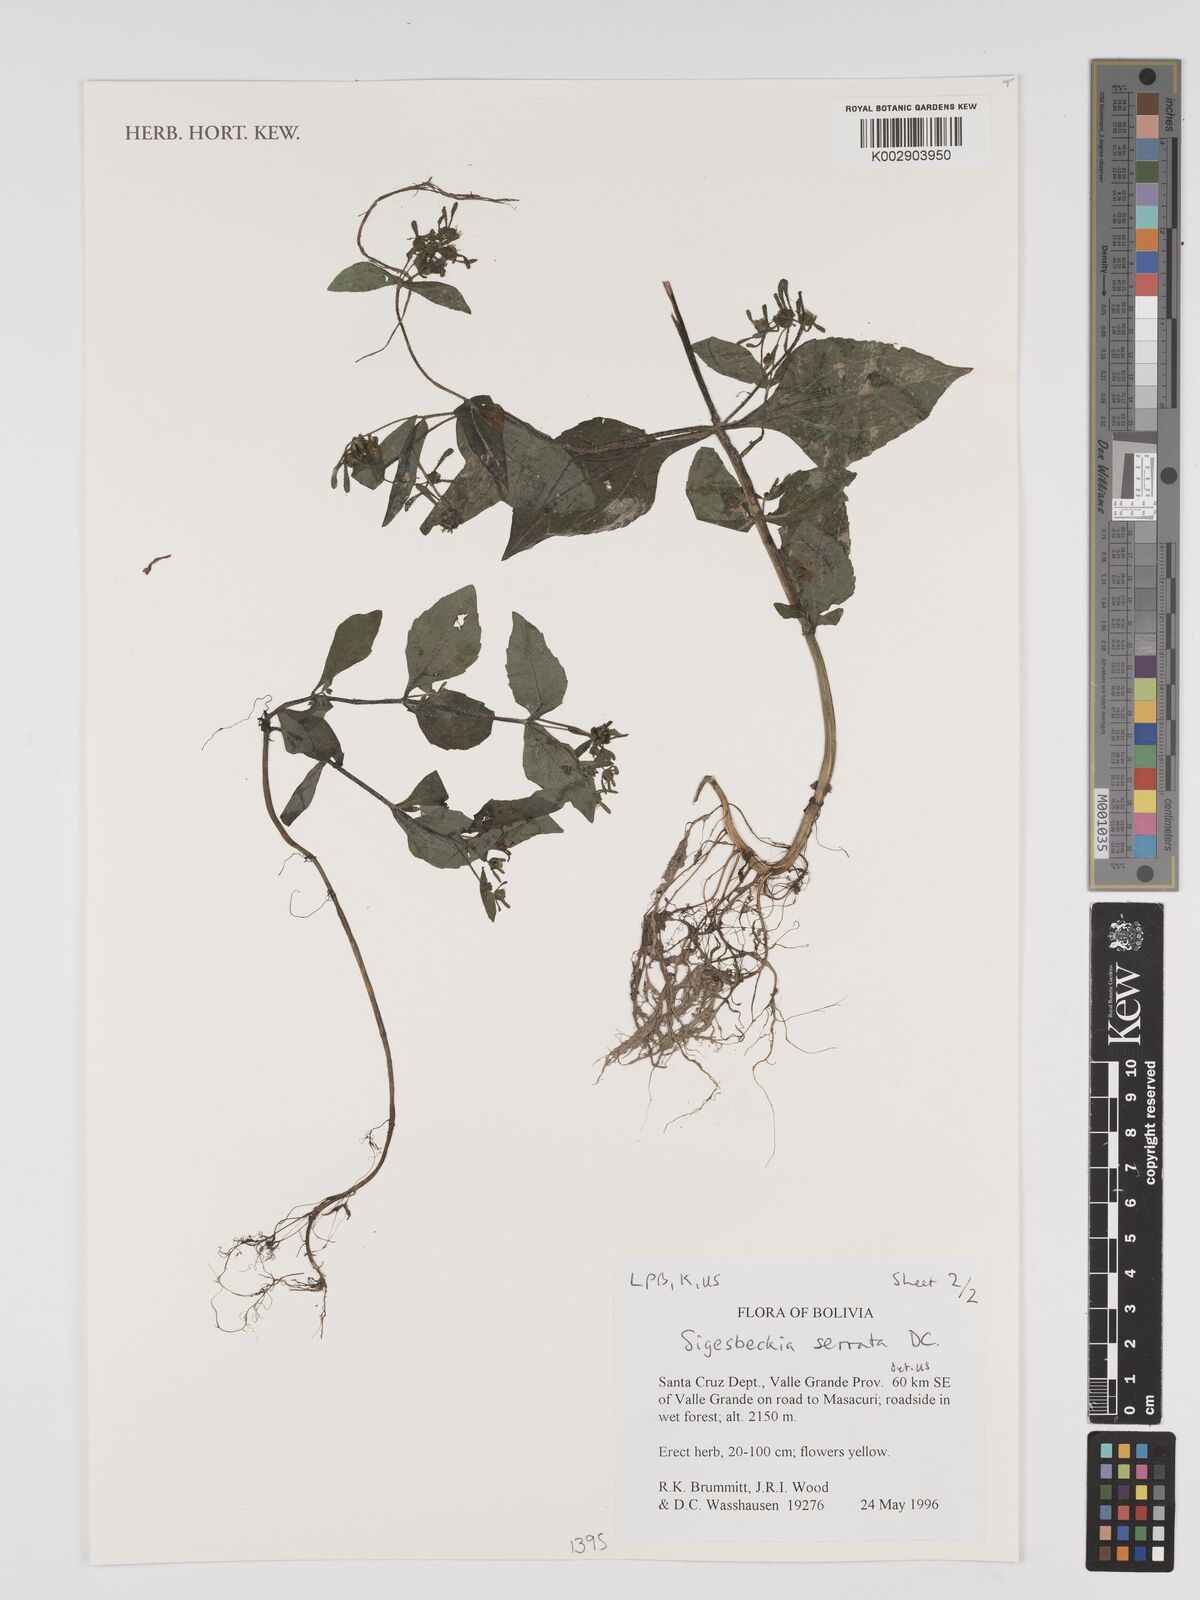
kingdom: Plantae
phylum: Tracheophyta
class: Magnoliopsida
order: Asterales
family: Asteraceae
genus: Sigesbeckia
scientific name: Sigesbeckia jorullensis
